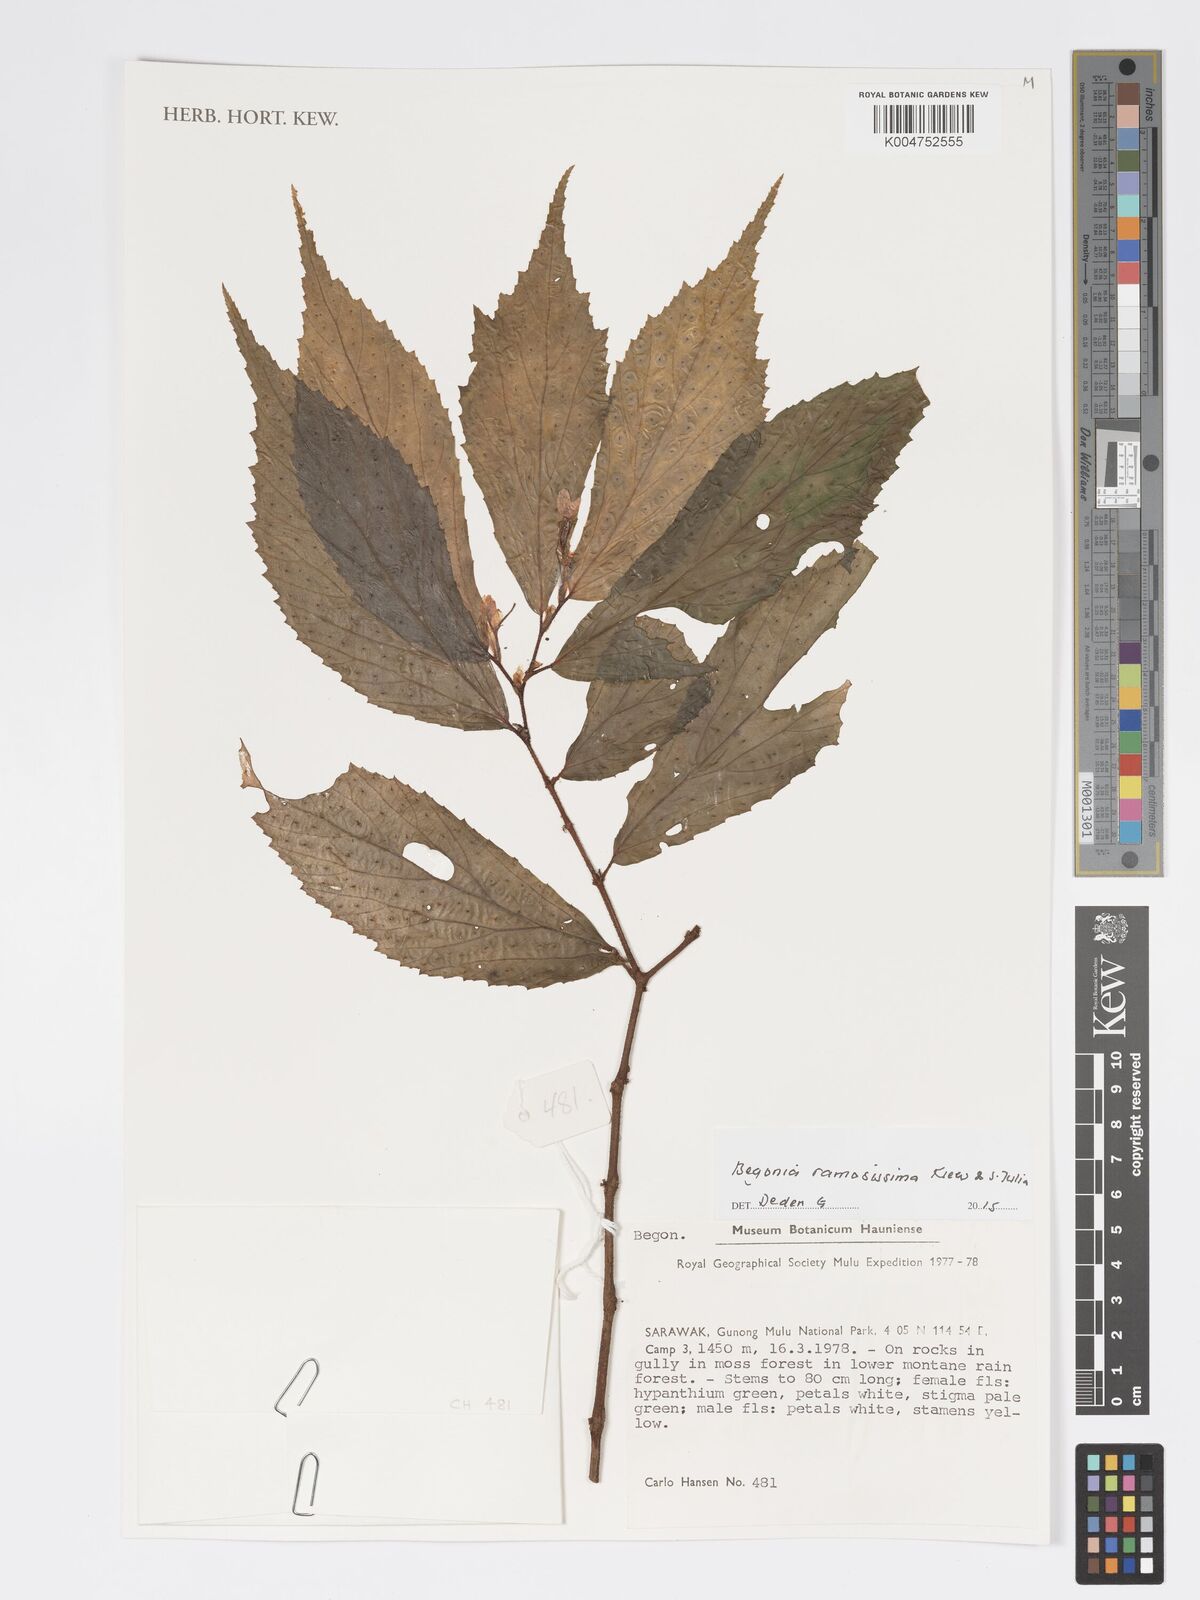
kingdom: Plantae
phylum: Tracheophyta
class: Magnoliopsida
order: Cucurbitales
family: Begoniaceae
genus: Begonia
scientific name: Begonia ramosissima
